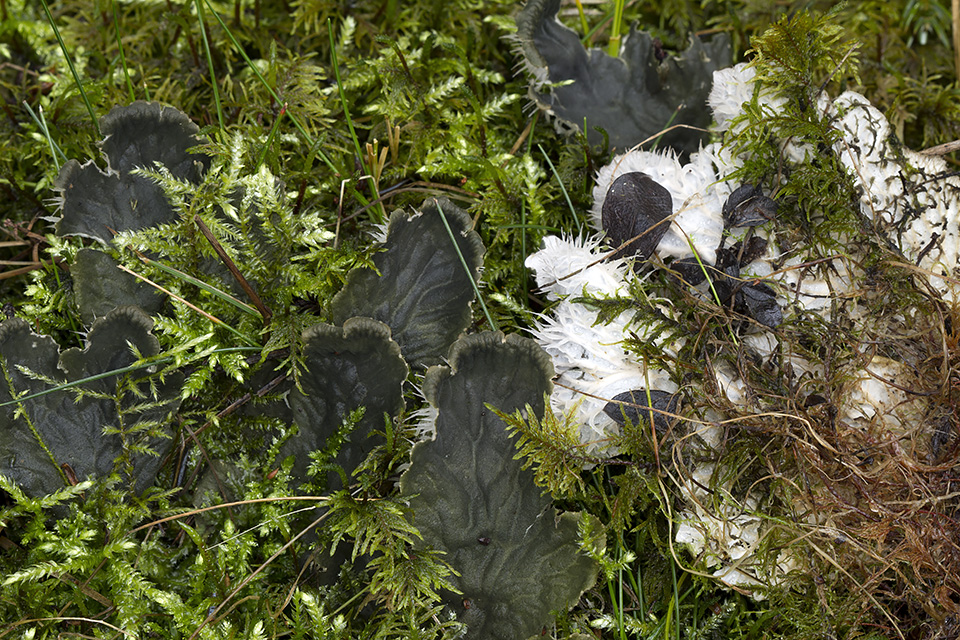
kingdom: Fungi
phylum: Ascomycota
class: Lecanoromycetes
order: Peltigerales
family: Peltigeraceae
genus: Peltigera
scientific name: Peltigera membranacea
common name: tynd skjoldlav
